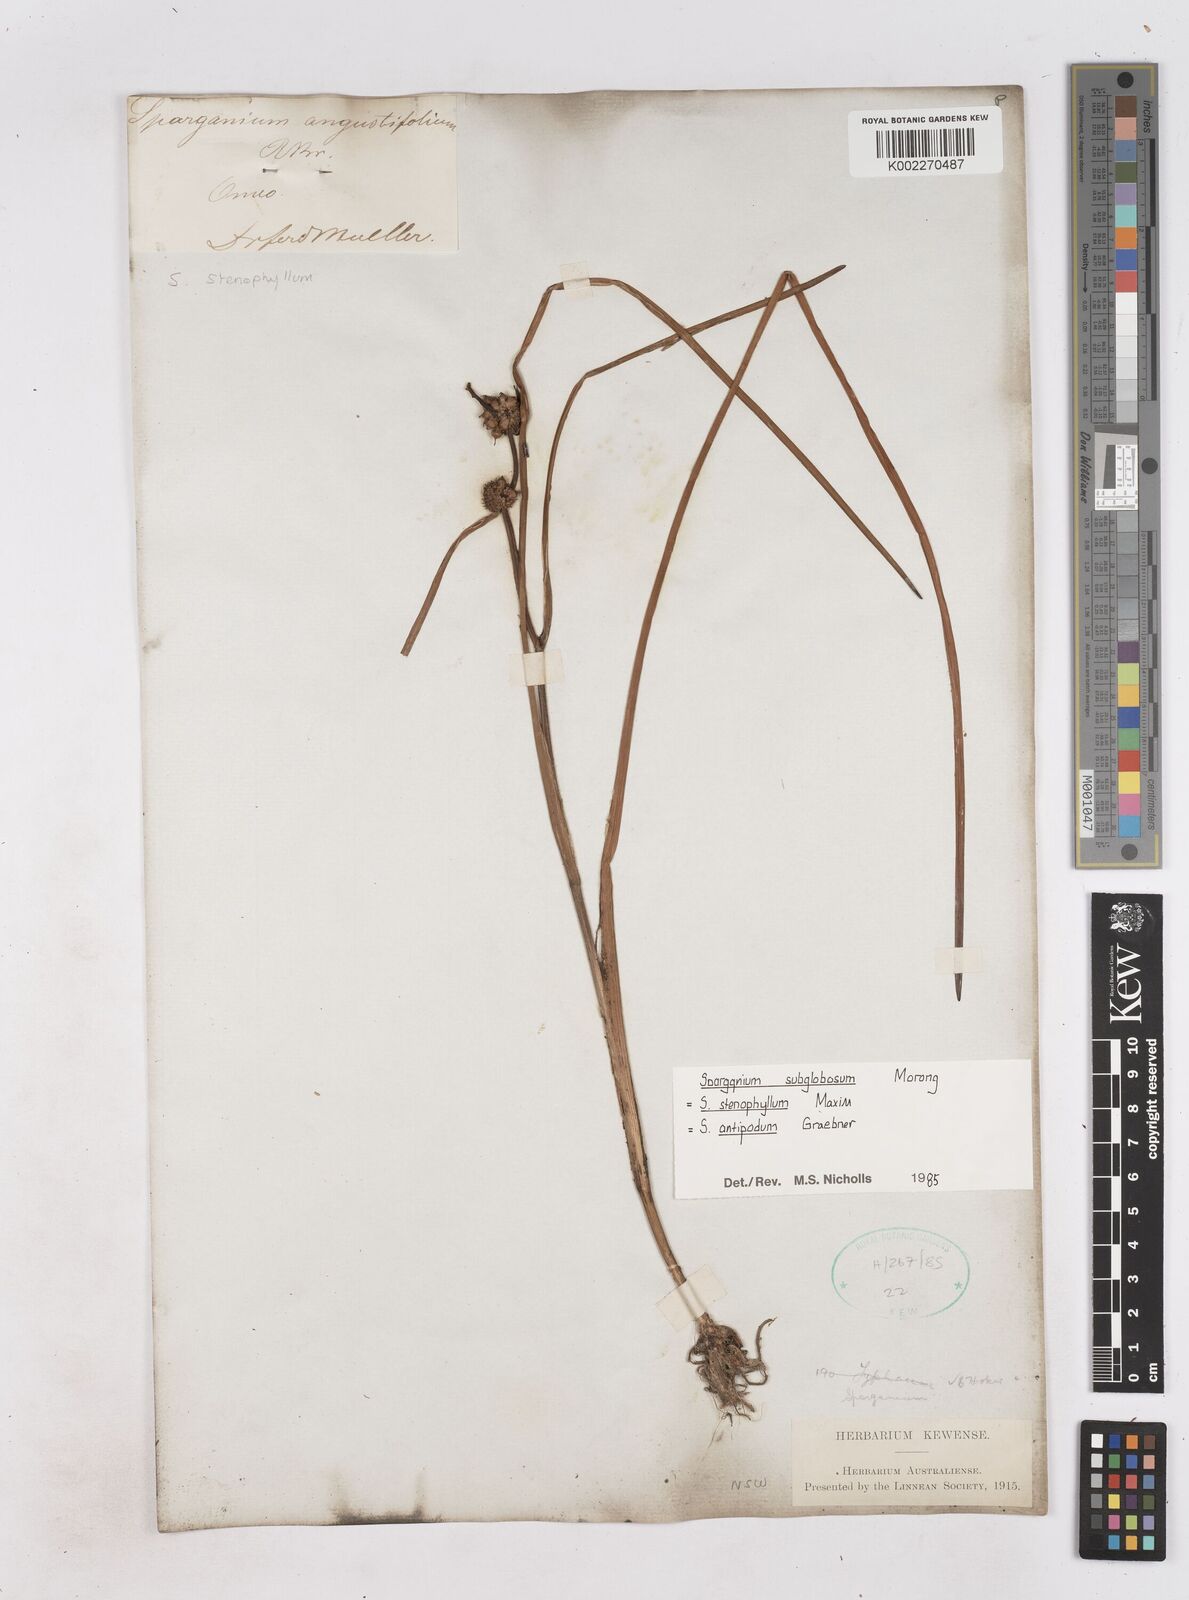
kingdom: Plantae
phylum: Tracheophyta
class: Liliopsida
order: Poales
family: Typhaceae
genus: Sparganium
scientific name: Sparganium subglobosum
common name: Burr­-reed
